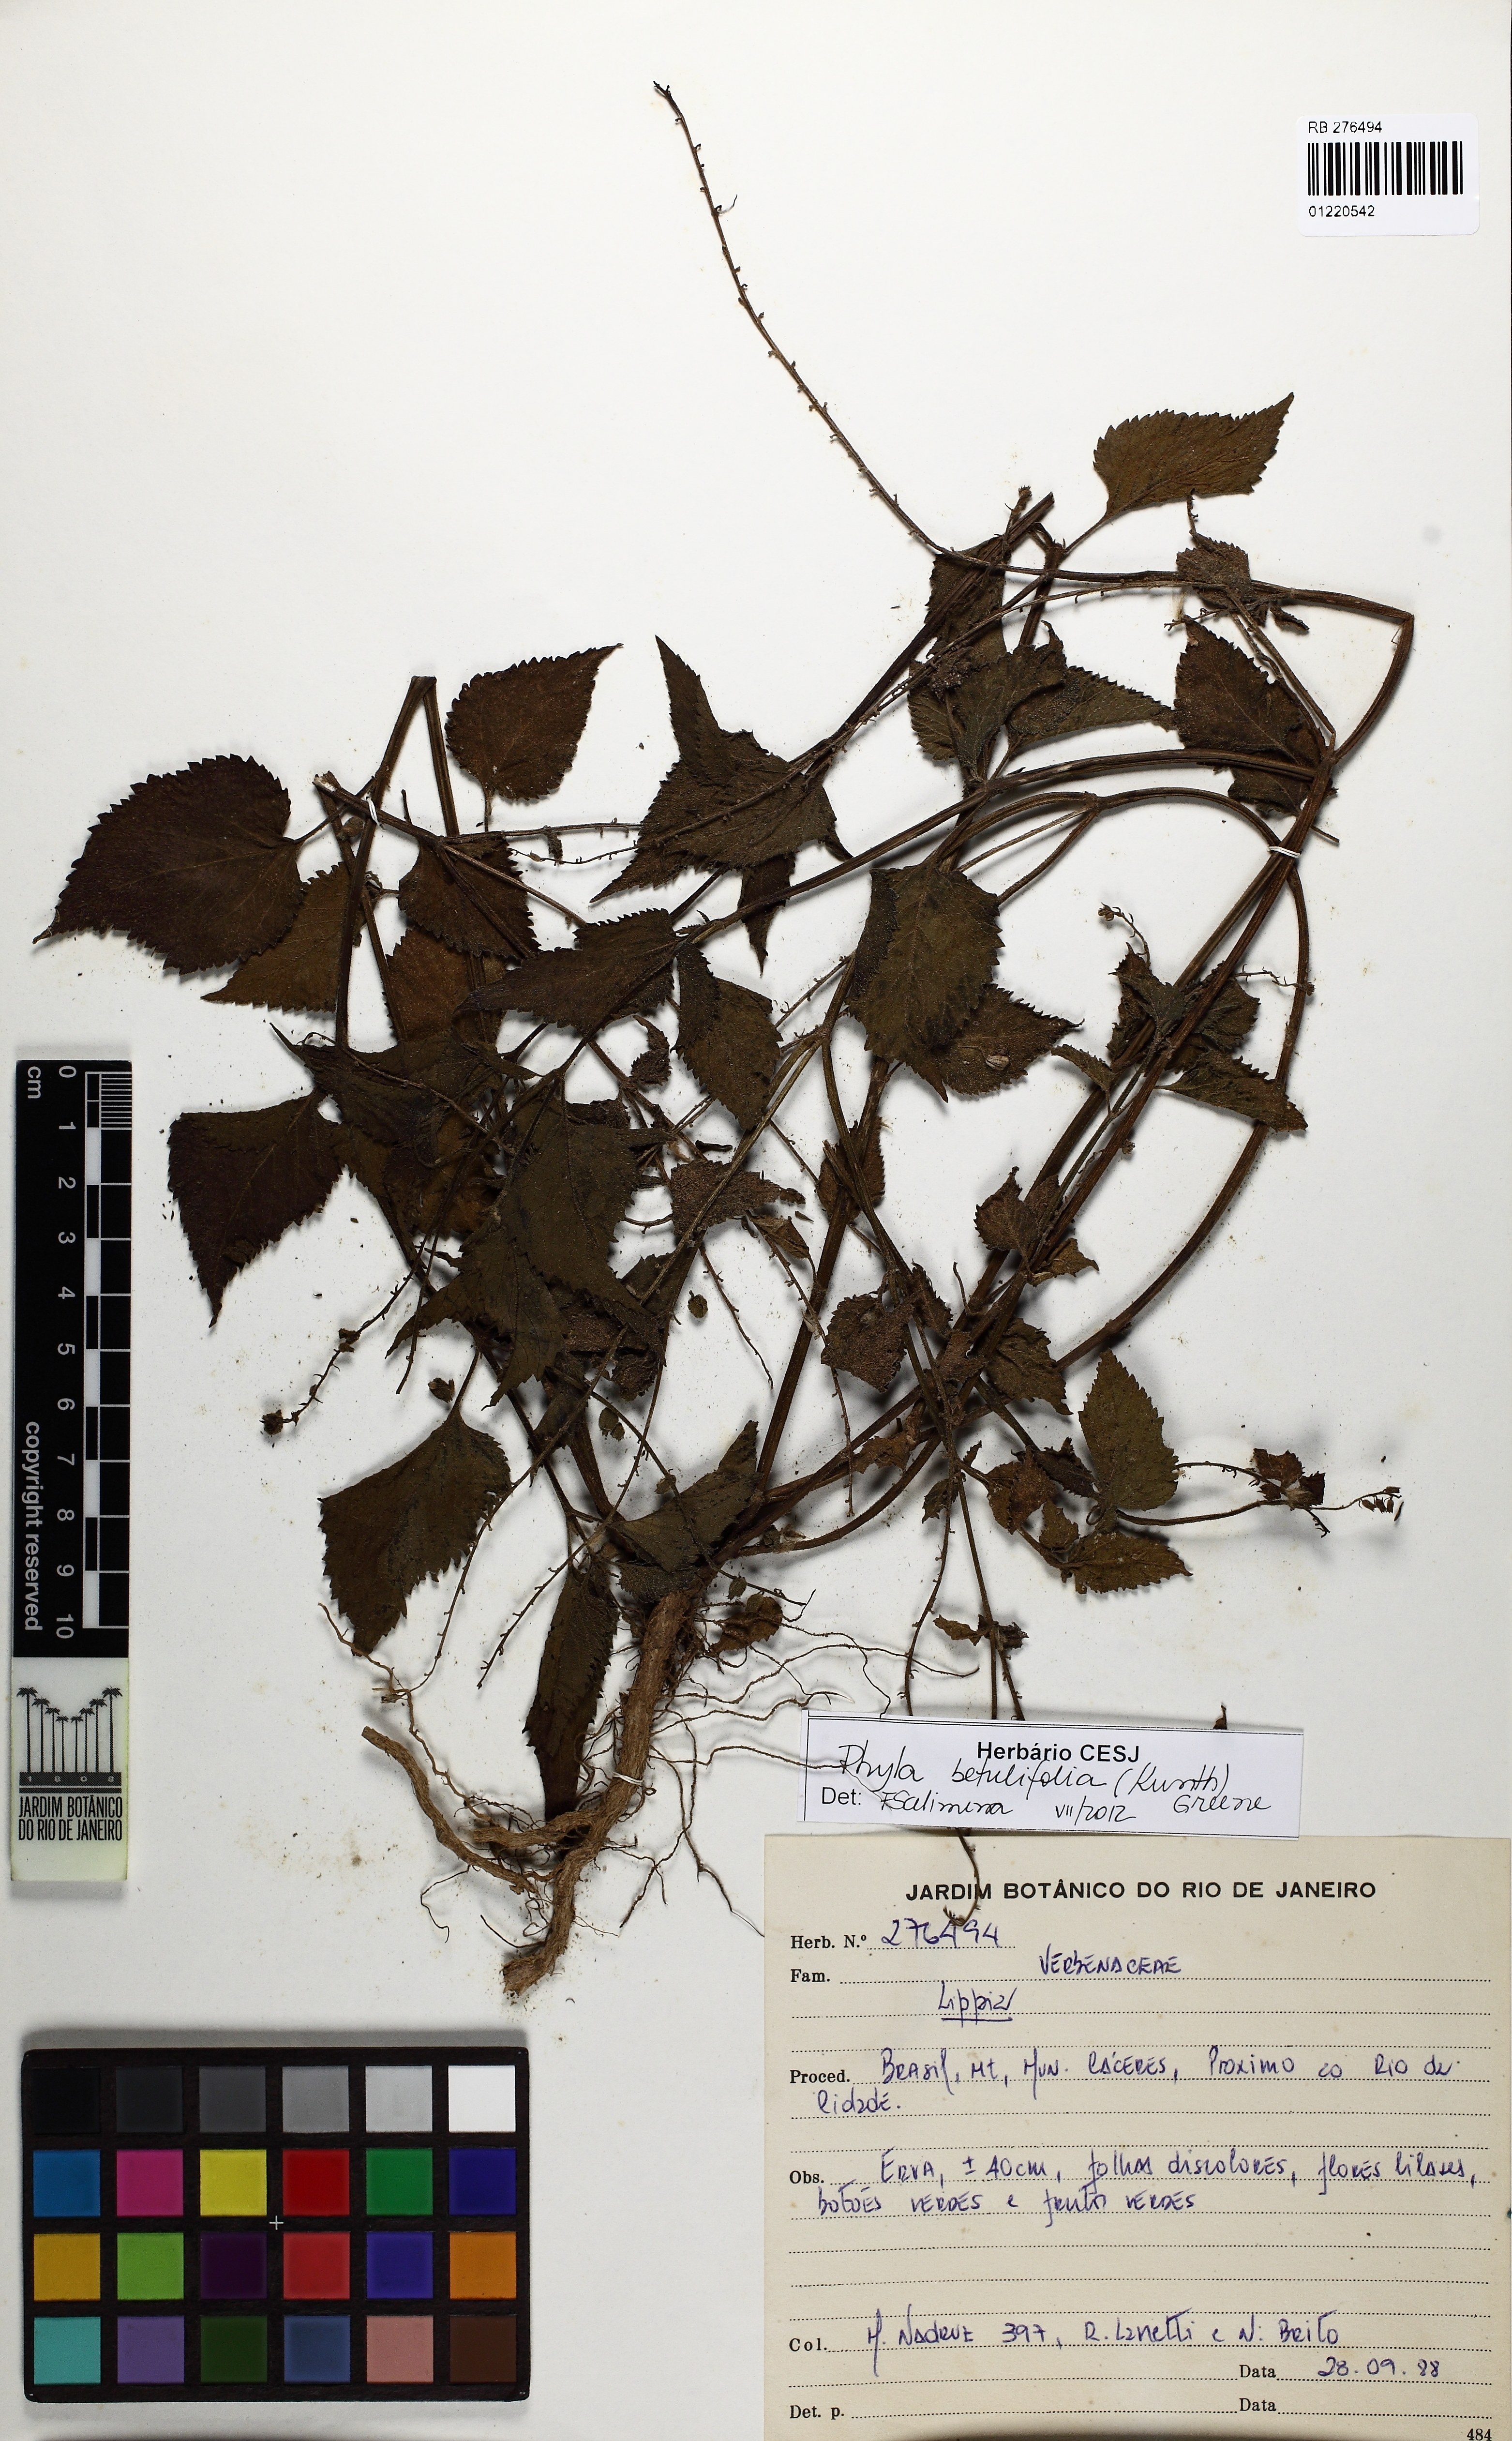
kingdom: Plantae
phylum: Tracheophyta
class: Magnoliopsida
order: Lamiales
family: Verbenaceae
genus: Phyla
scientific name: Phyla betulifolia
